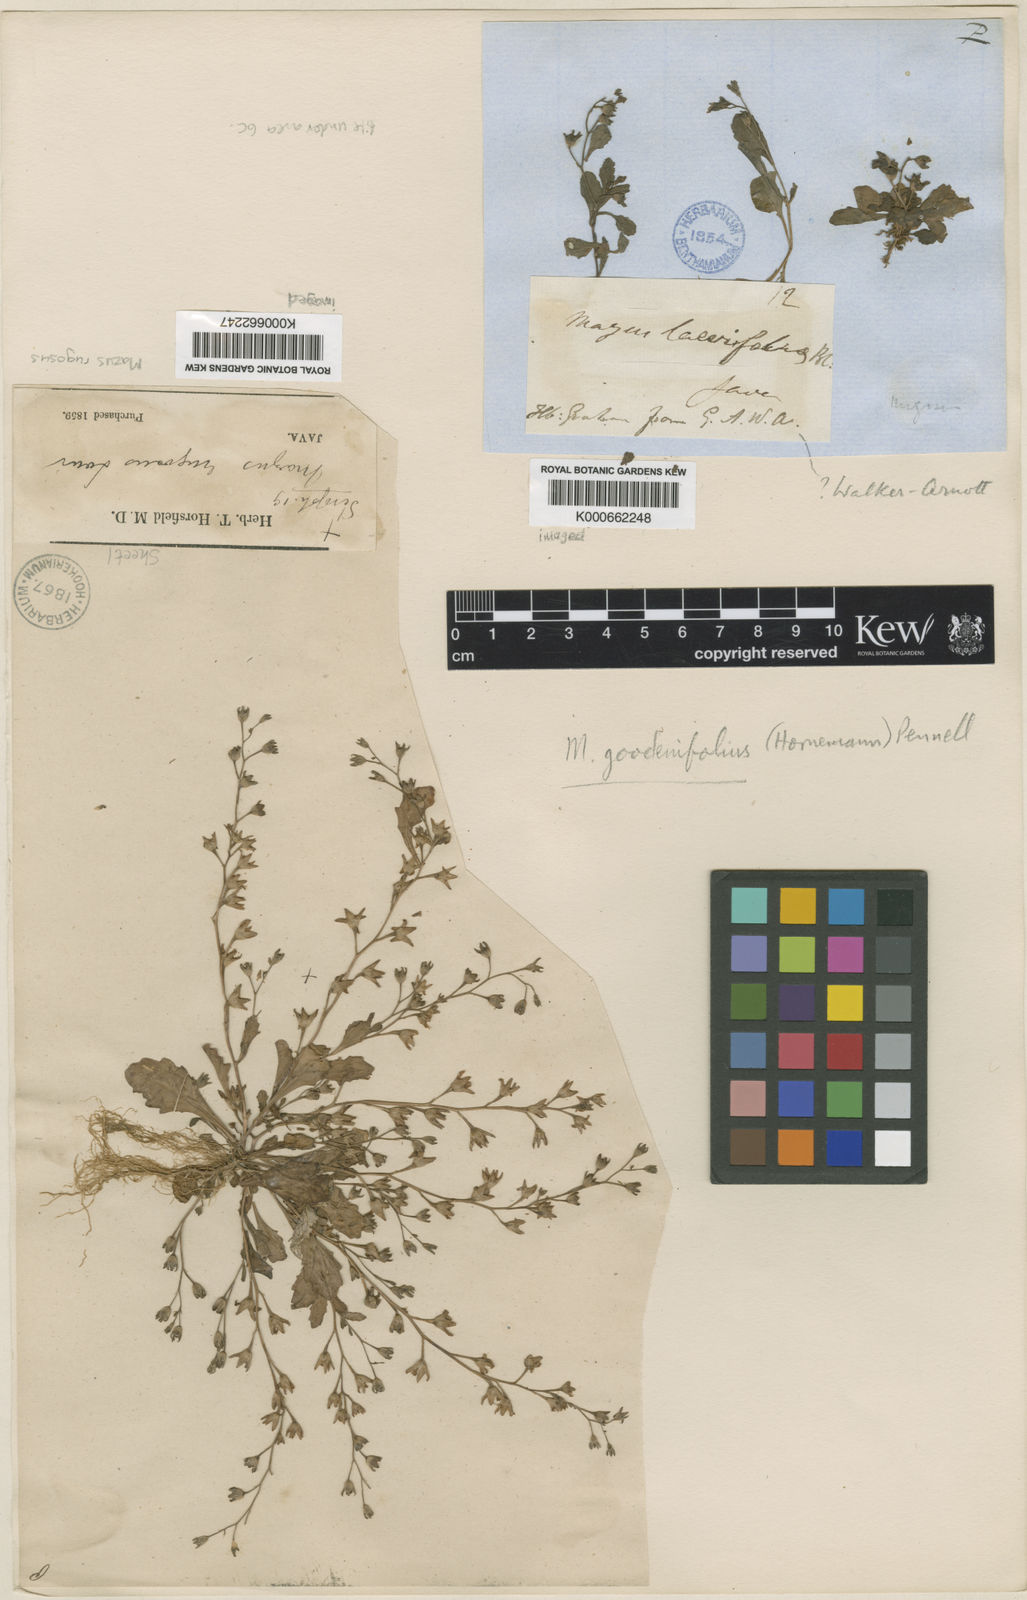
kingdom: Plantae
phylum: Tracheophyta
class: Magnoliopsida
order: Lamiales
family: Mazaceae
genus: Mazus
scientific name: Mazus pumilus
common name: Japanese mazus
